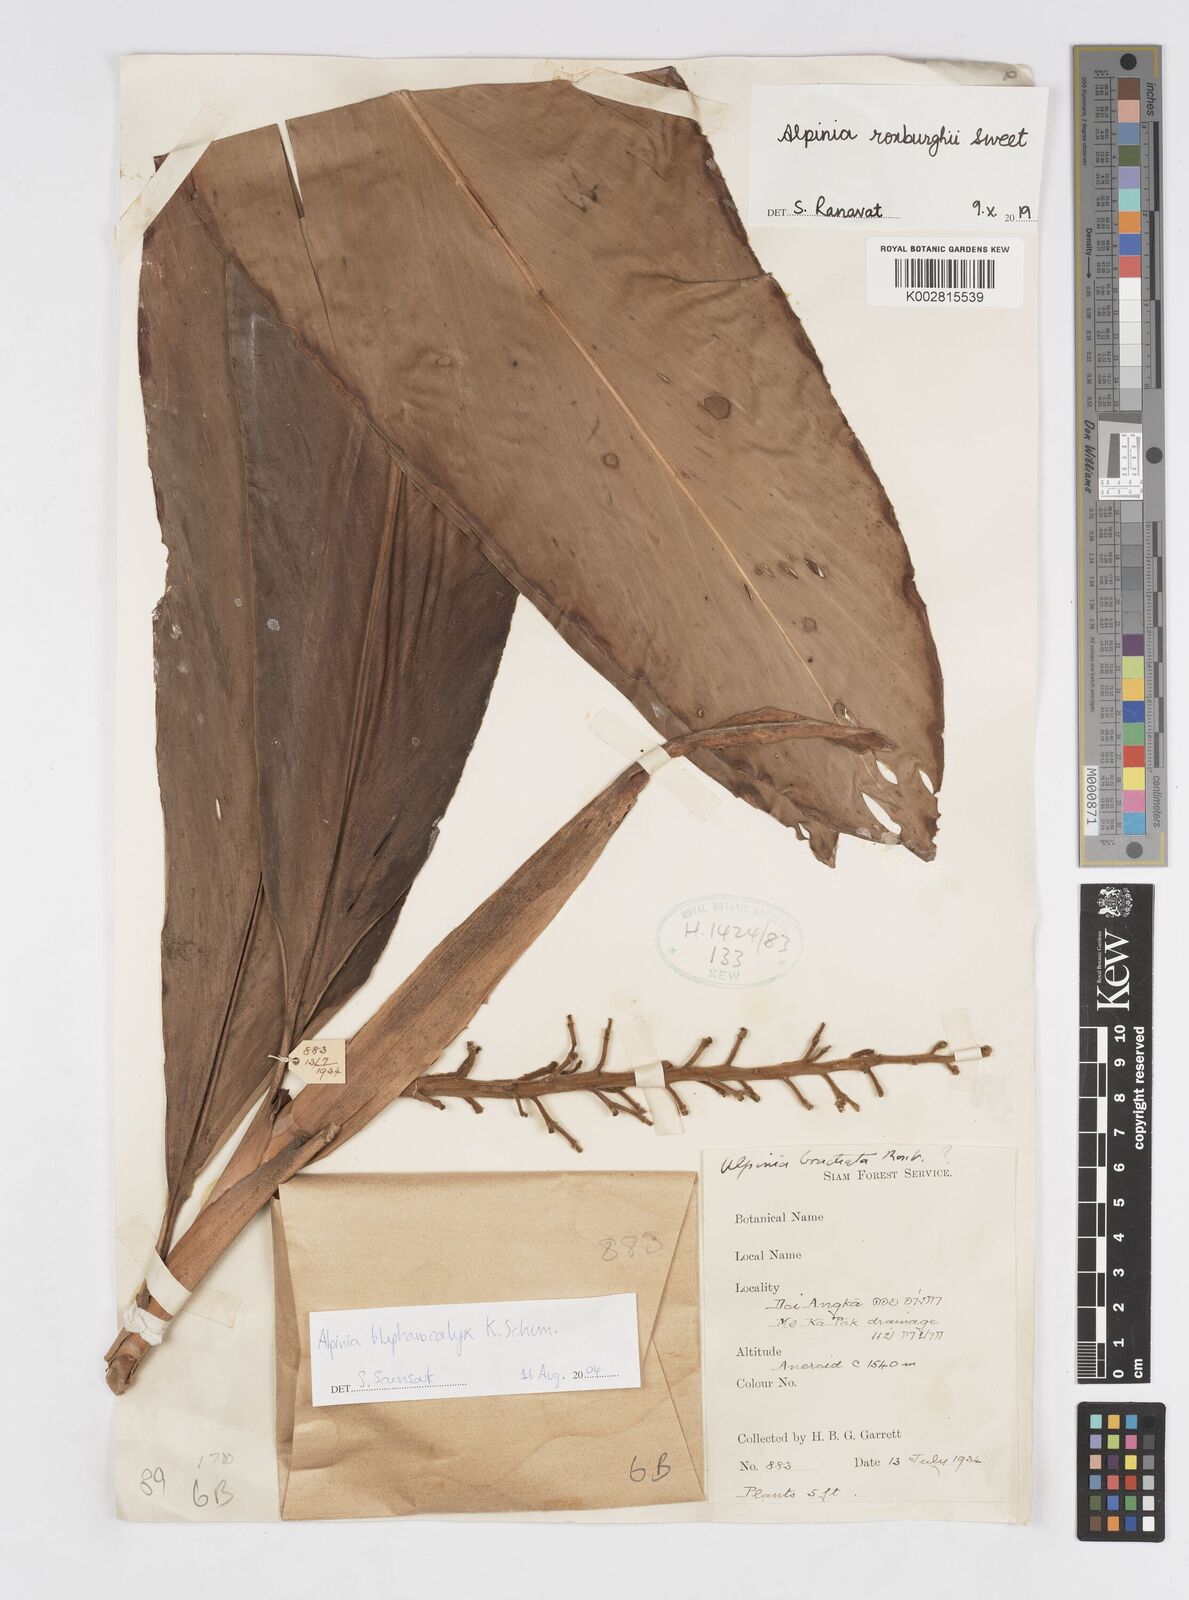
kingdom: Plantae
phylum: Tracheophyta
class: Liliopsida
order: Zingiberales
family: Zingiberaceae
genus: Alpinia
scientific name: Alpinia roxburghii
